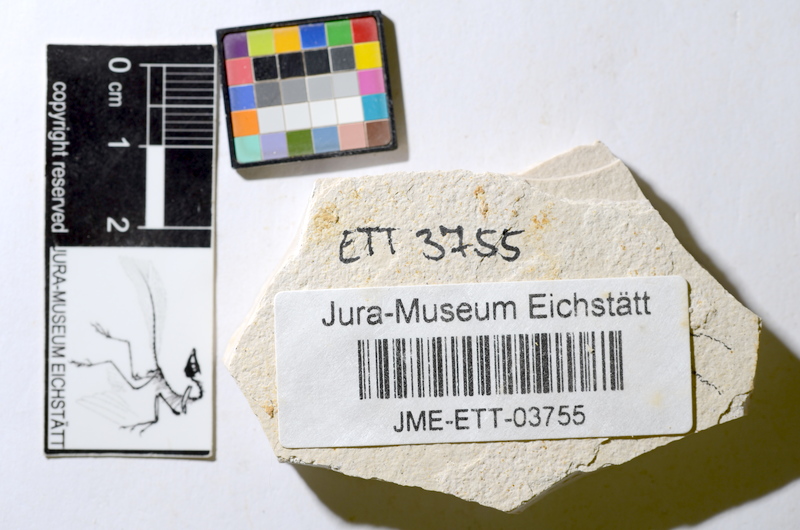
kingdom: Animalia
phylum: Chordata
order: Salmoniformes
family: Orthogonikleithridae
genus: Orthogonikleithrus
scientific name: Orthogonikleithrus hoelli
